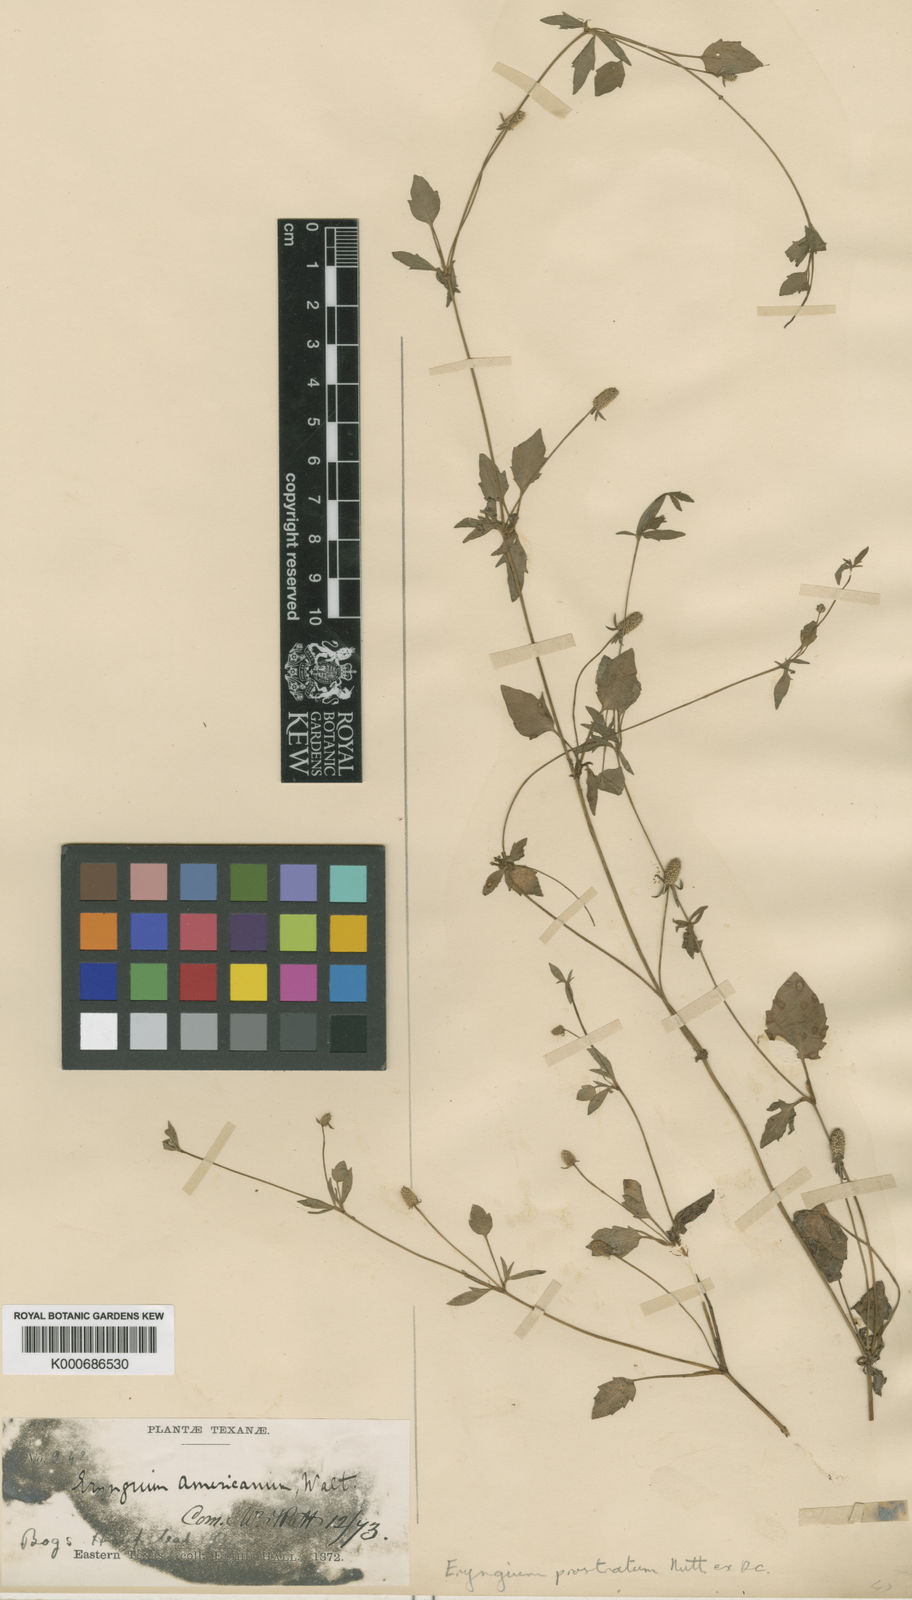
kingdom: Plantae
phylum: Tracheophyta
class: Magnoliopsida
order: Apiales
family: Apiaceae
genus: Eryngium
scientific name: Eryngium prostratum
